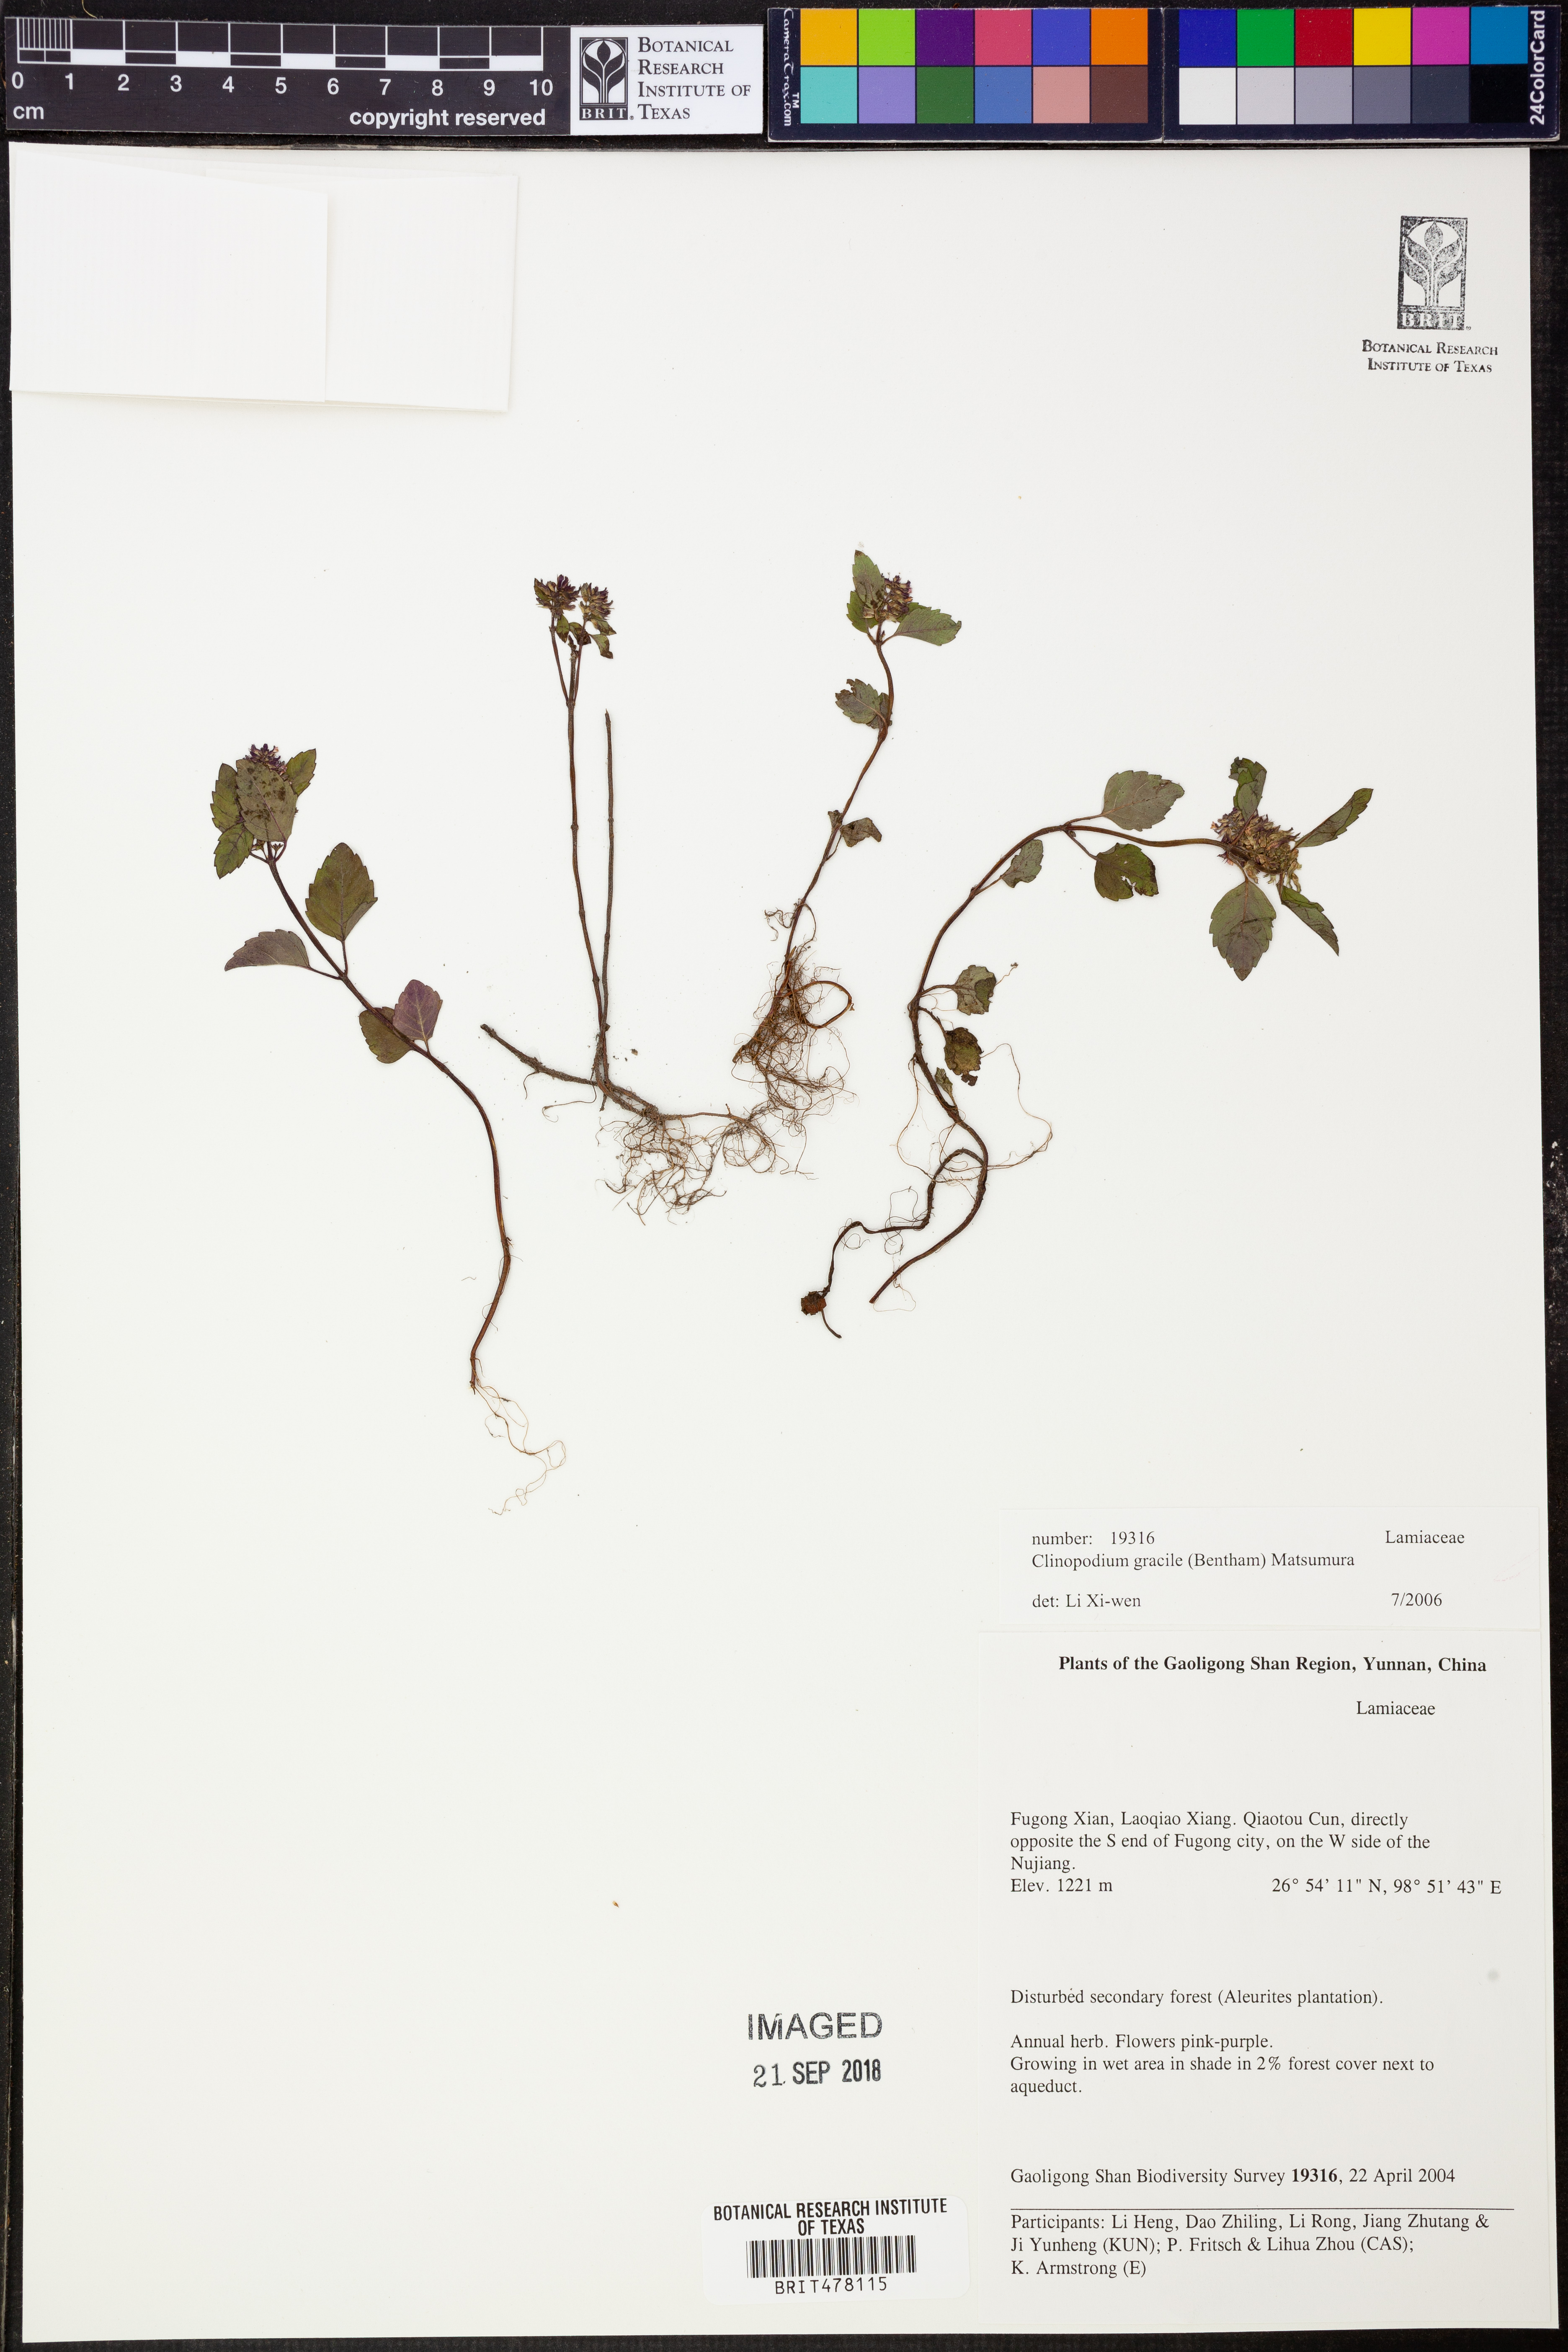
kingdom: Plantae
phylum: Tracheophyta
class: Magnoliopsida
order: Lamiales
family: Lamiaceae
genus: Clinopodium
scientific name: Clinopodium gracile
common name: Slender wild basil
